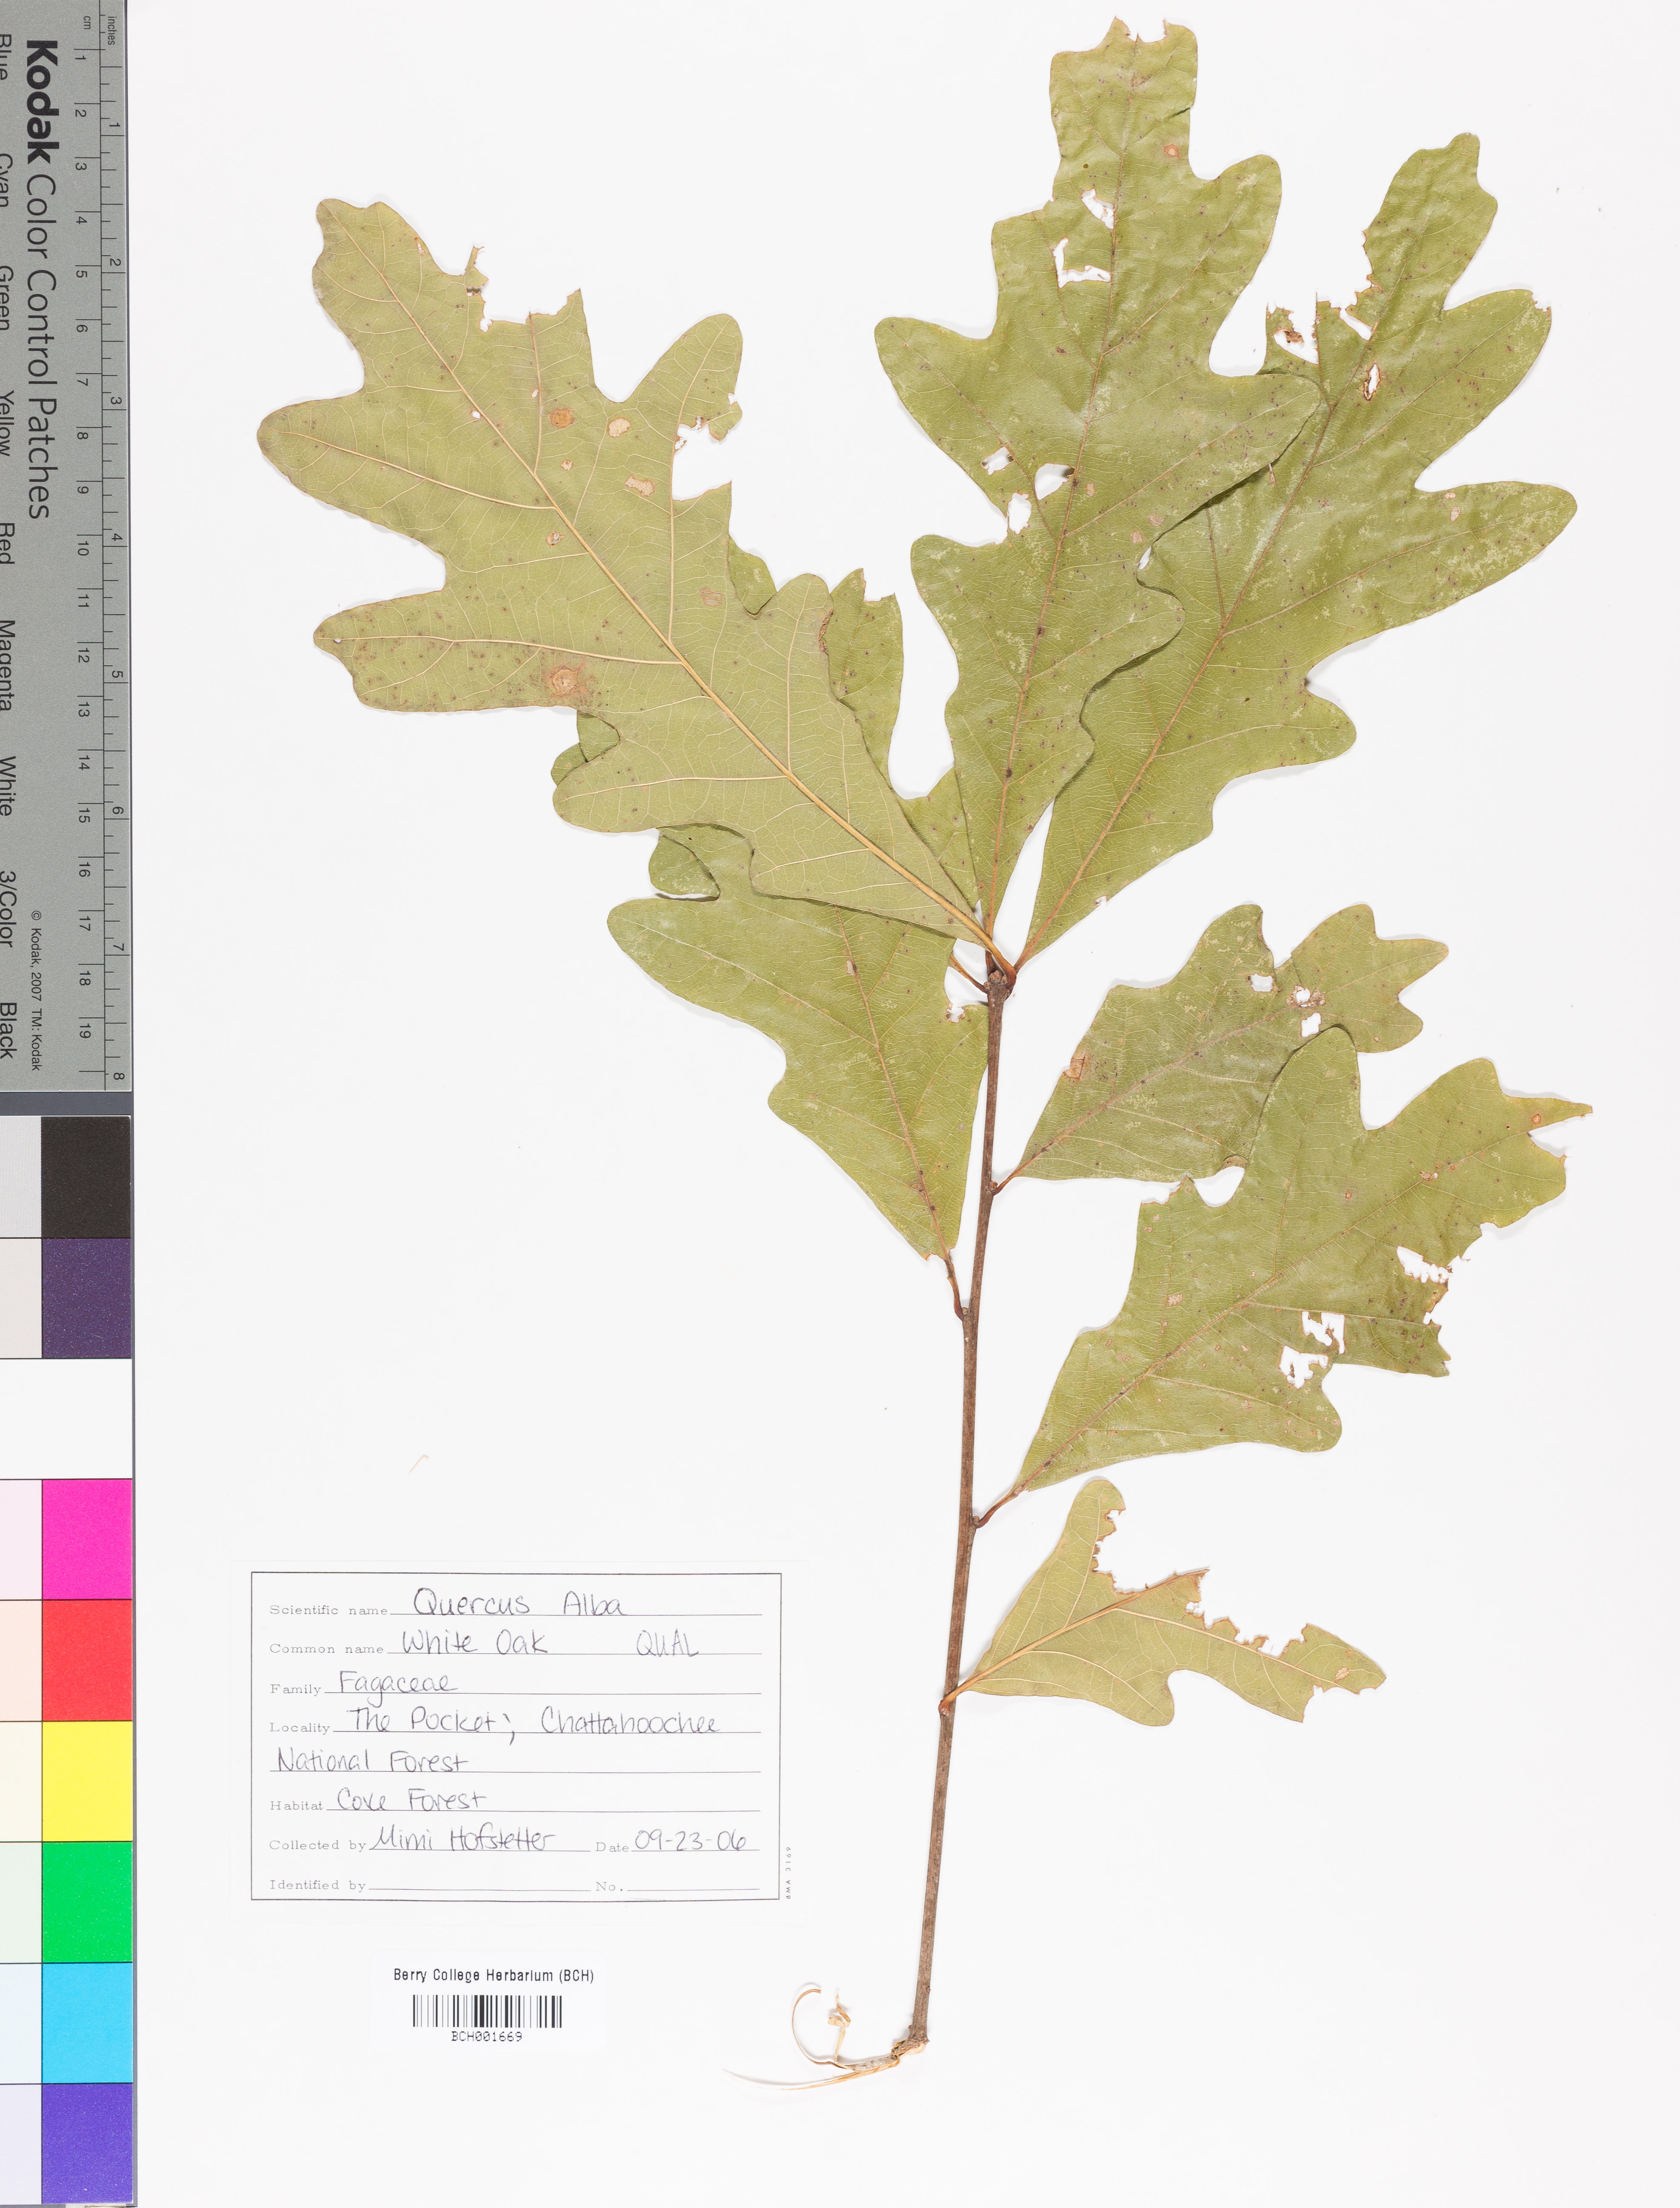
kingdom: Plantae
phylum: Tracheophyta
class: Magnoliopsida
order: Fagales
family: Fagaceae
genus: Quercus
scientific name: Quercus alba
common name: White oak
